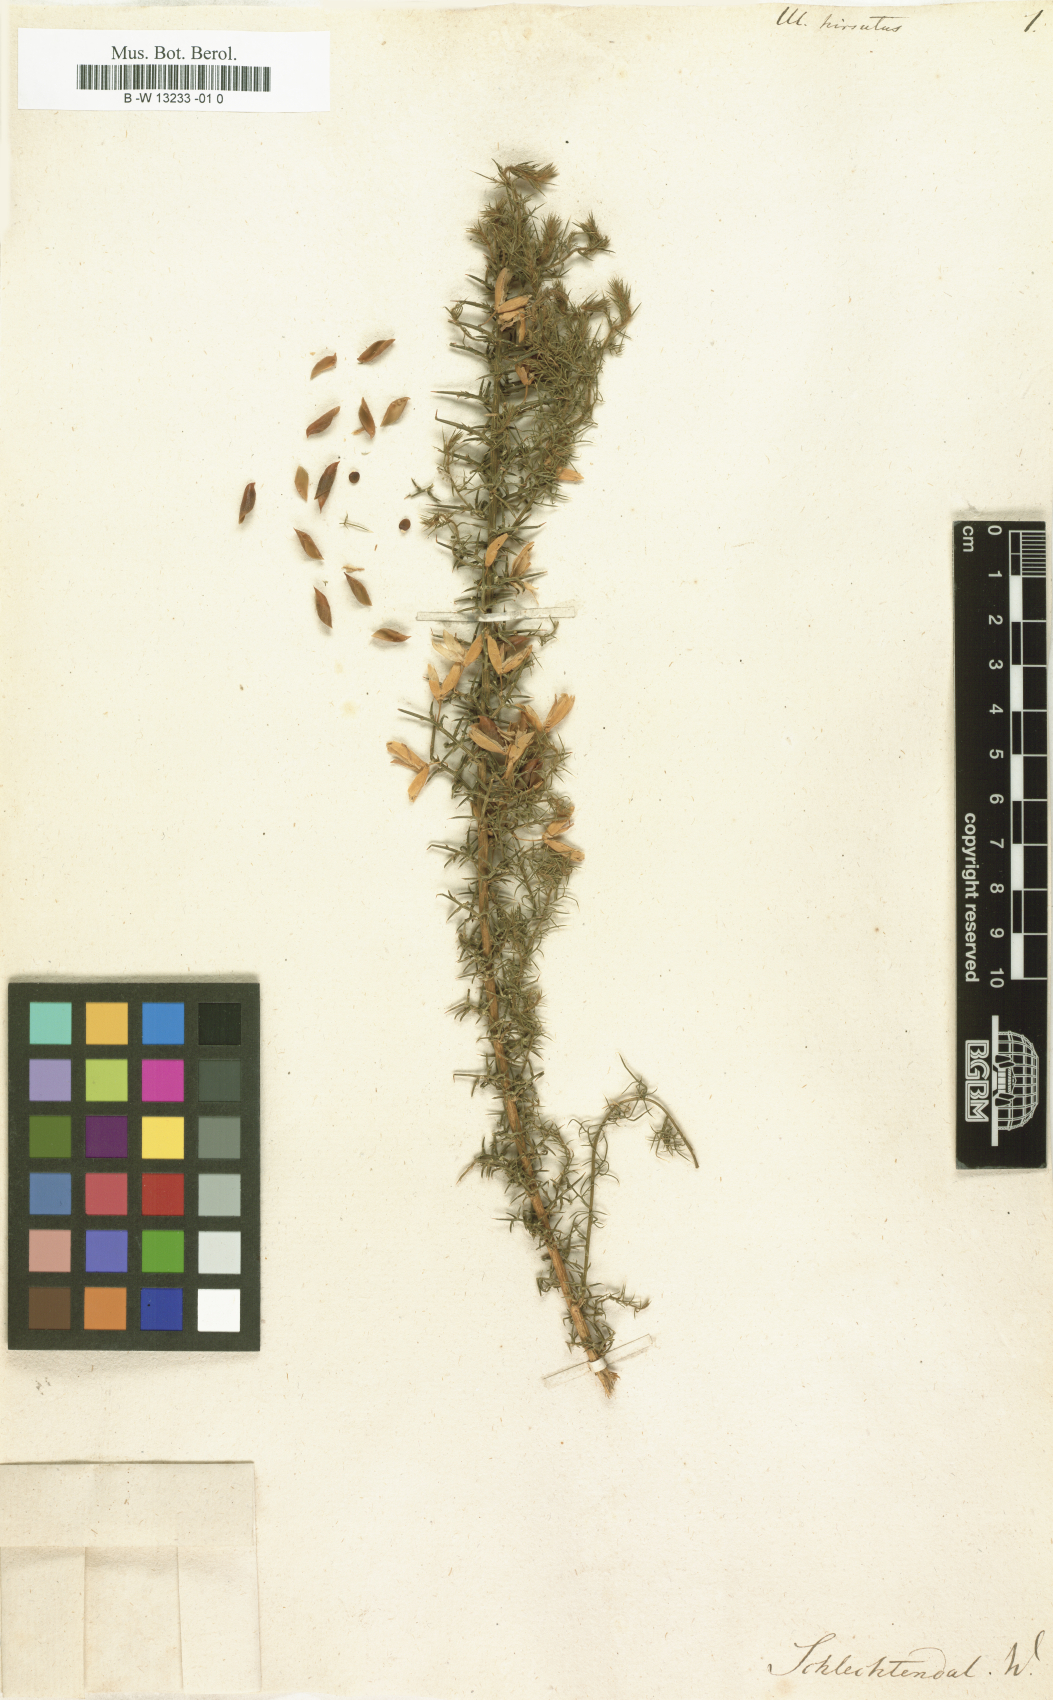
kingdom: Plantae
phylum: Tracheophyta
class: Magnoliopsida
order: Fabales
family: Fabaceae
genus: Ulex
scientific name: Ulex
